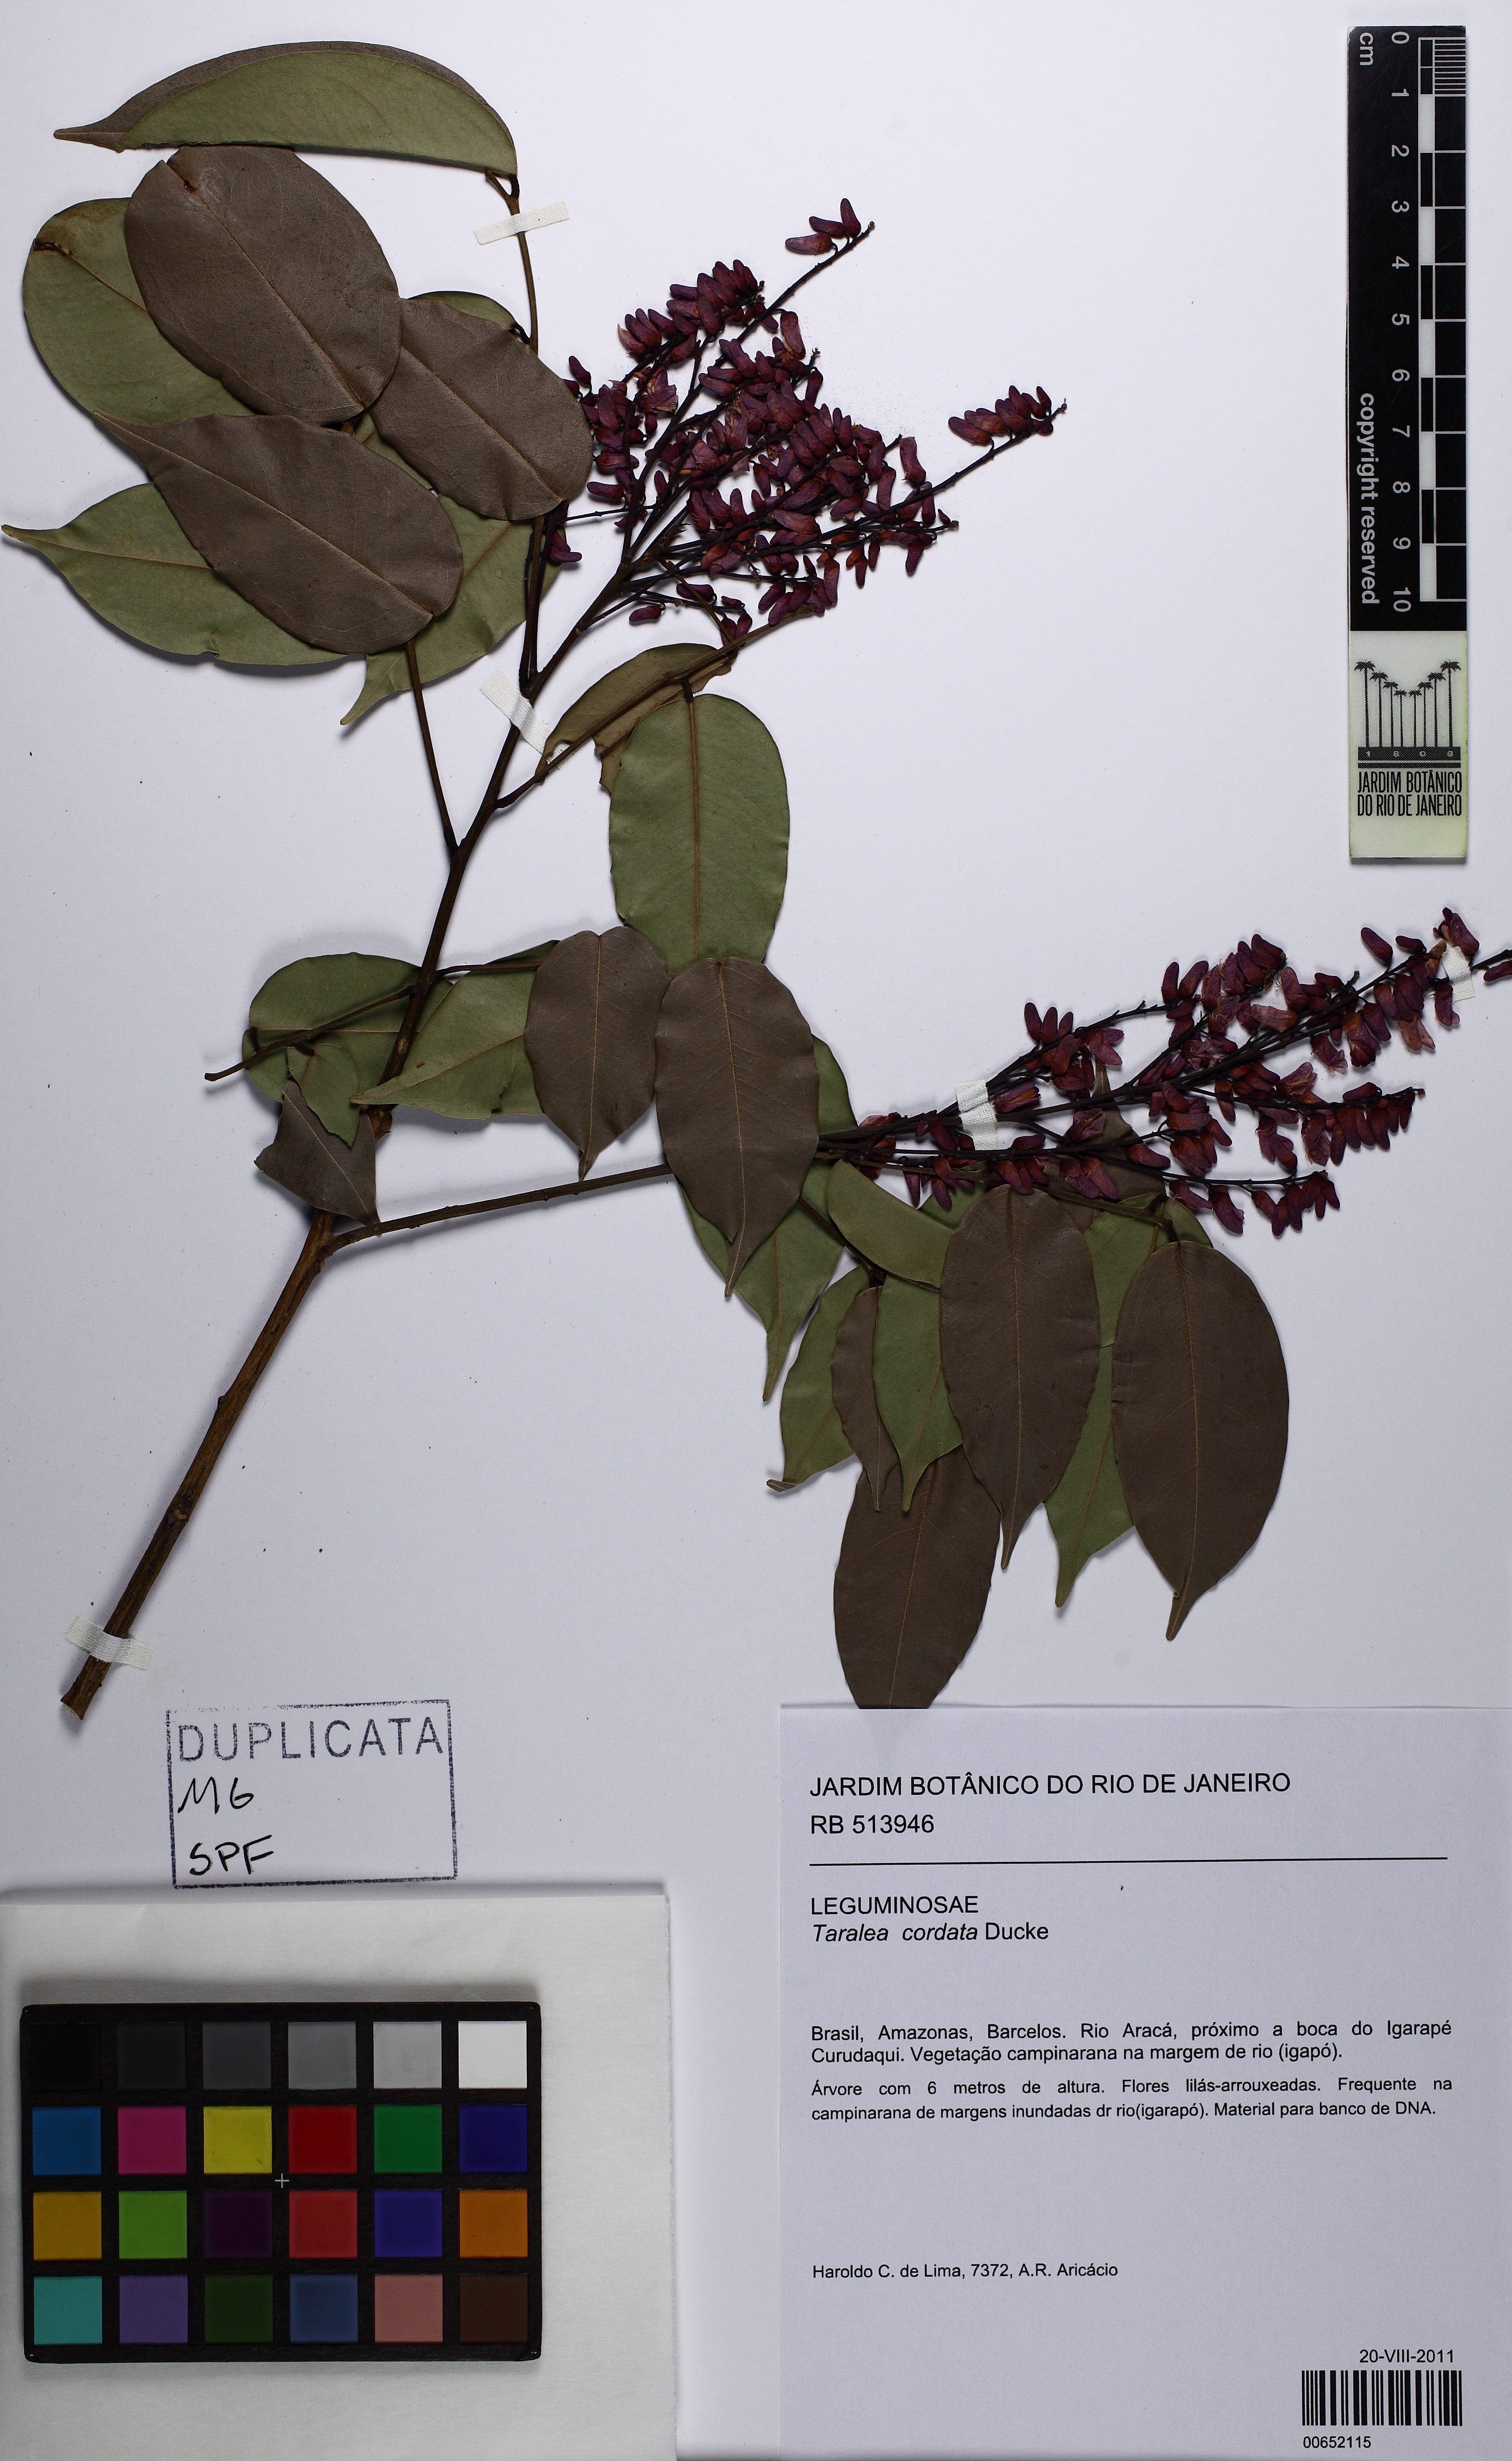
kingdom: Plantae
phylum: Tracheophyta
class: Magnoliopsida
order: Fabales
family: Fabaceae
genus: Taralea
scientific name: Taralea cordata
